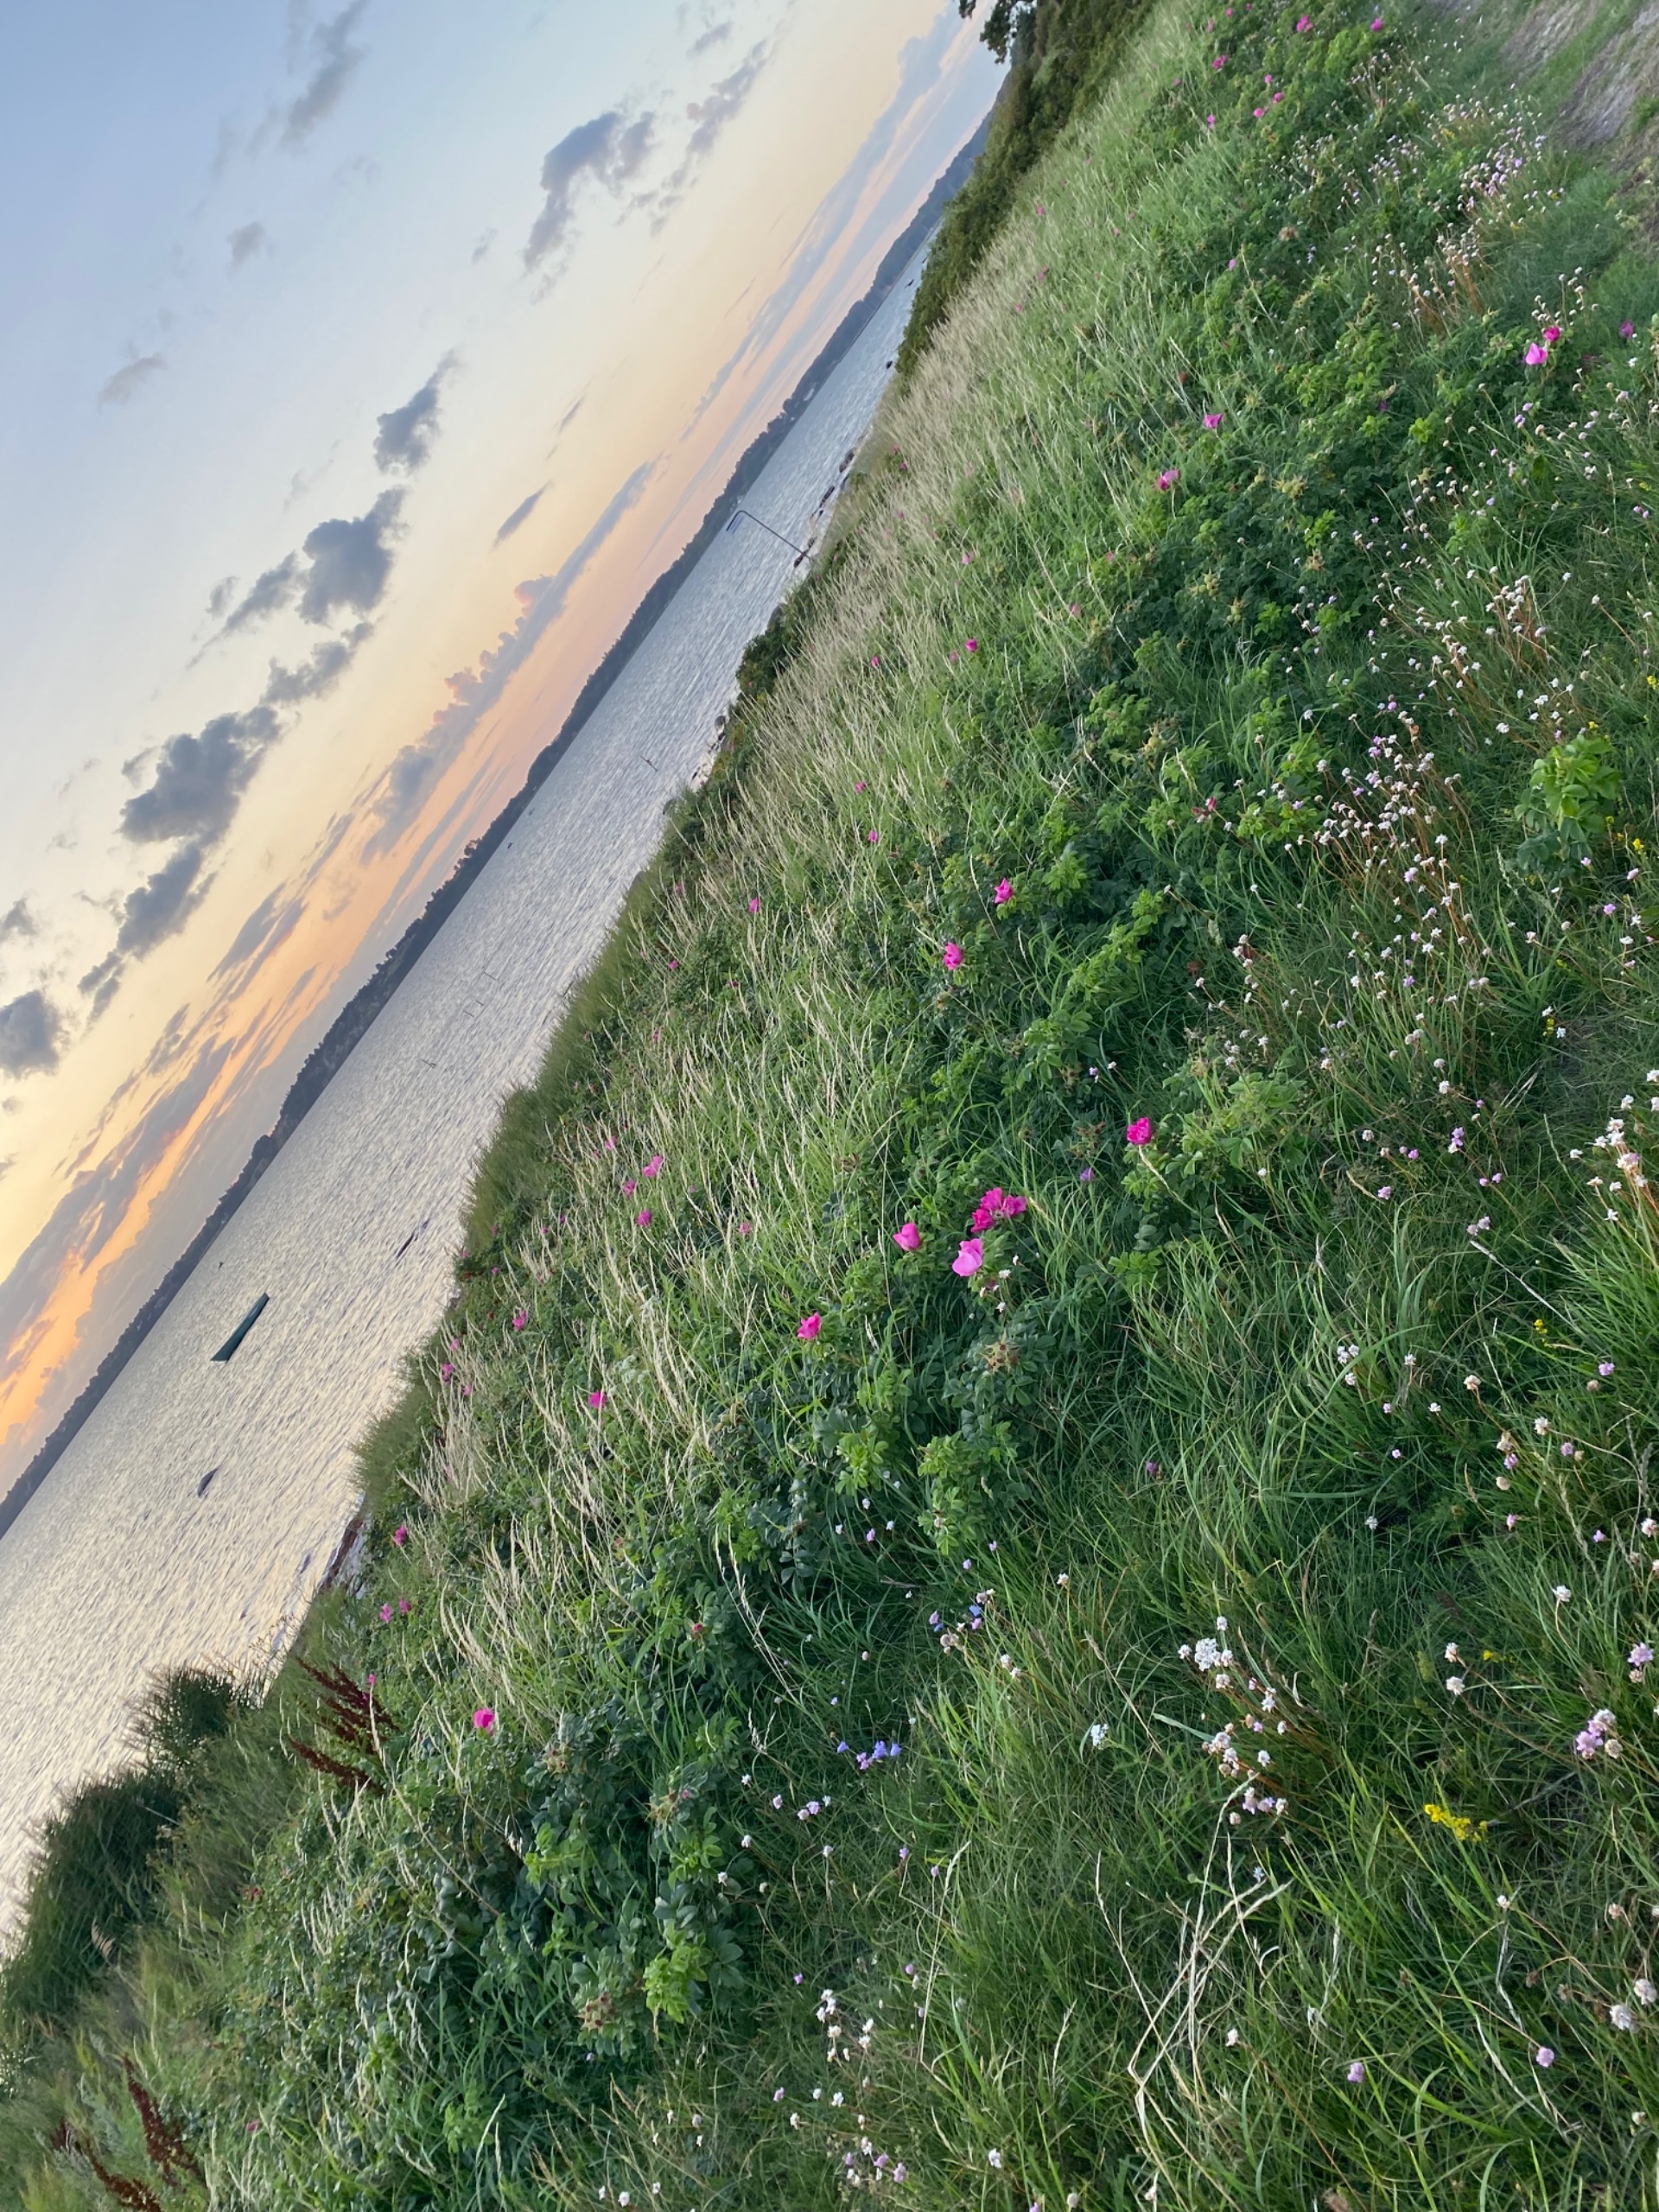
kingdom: Plantae
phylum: Tracheophyta
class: Magnoliopsida
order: Rosales
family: Rosaceae
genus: Rosa
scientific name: Rosa rugosa
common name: Rynket rose
